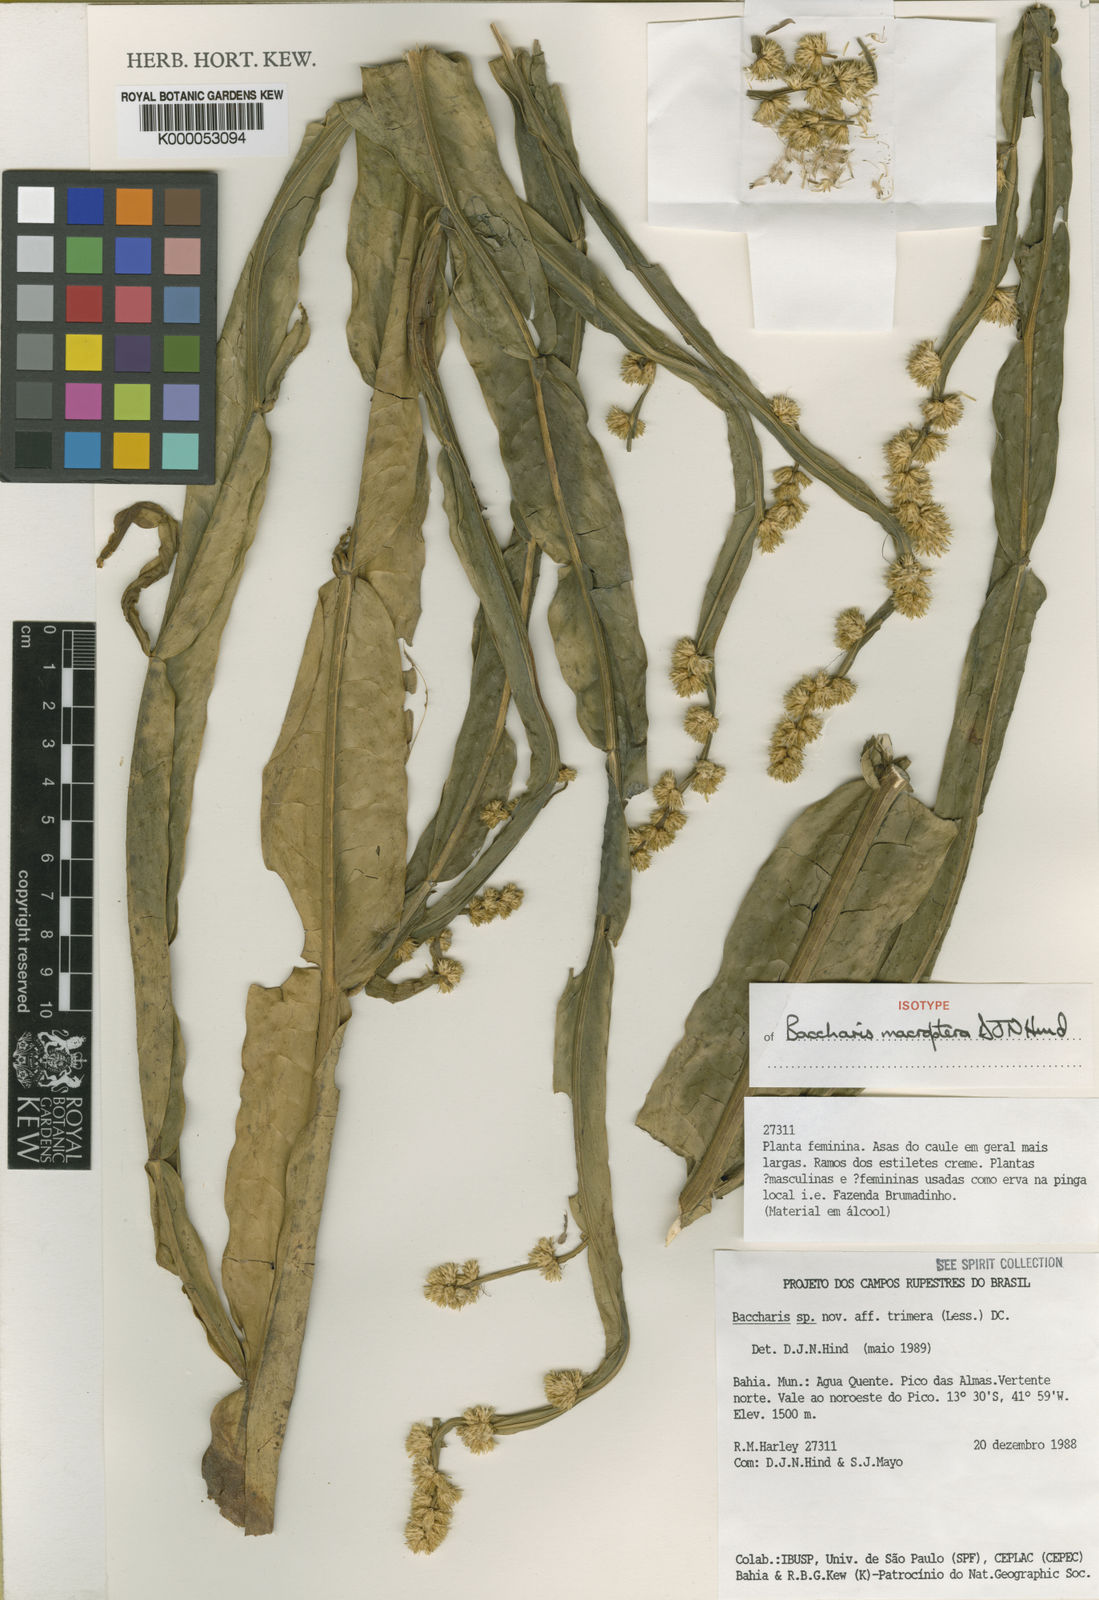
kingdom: Plantae
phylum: Tracheophyta
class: Magnoliopsida
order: Asterales
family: Asteraceae
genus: Baccharis
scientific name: Baccharis sagittalis
